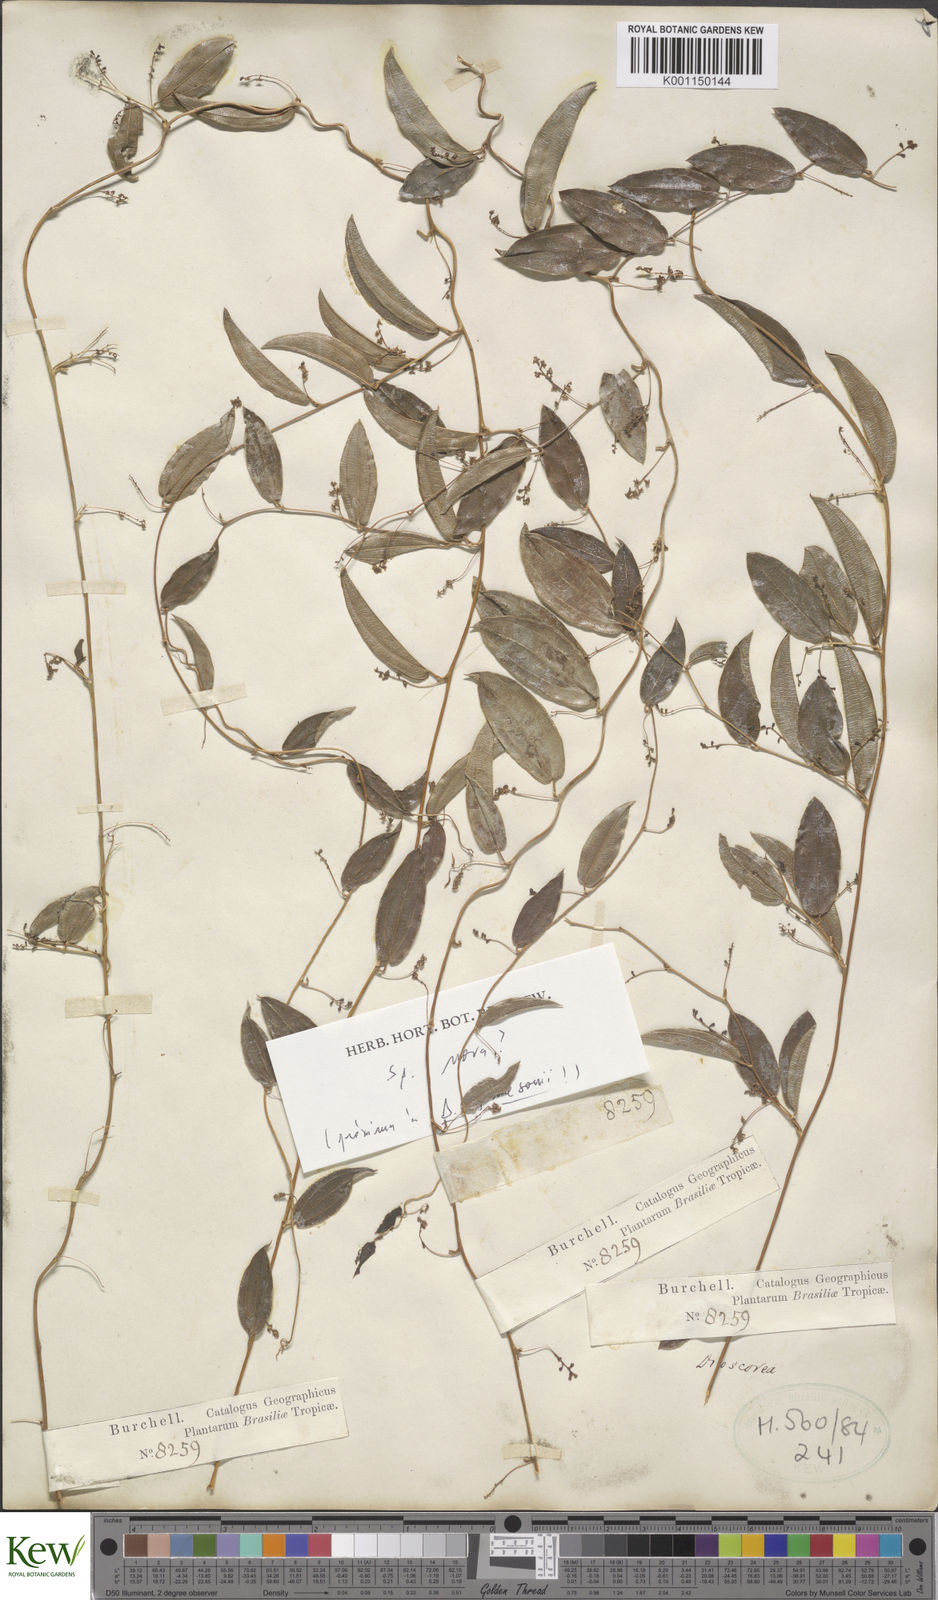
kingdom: Plantae
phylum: Tracheophyta
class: Liliopsida
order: Dioscoreales
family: Dioscoreaceae
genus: Dioscorea
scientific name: Dioscorea
